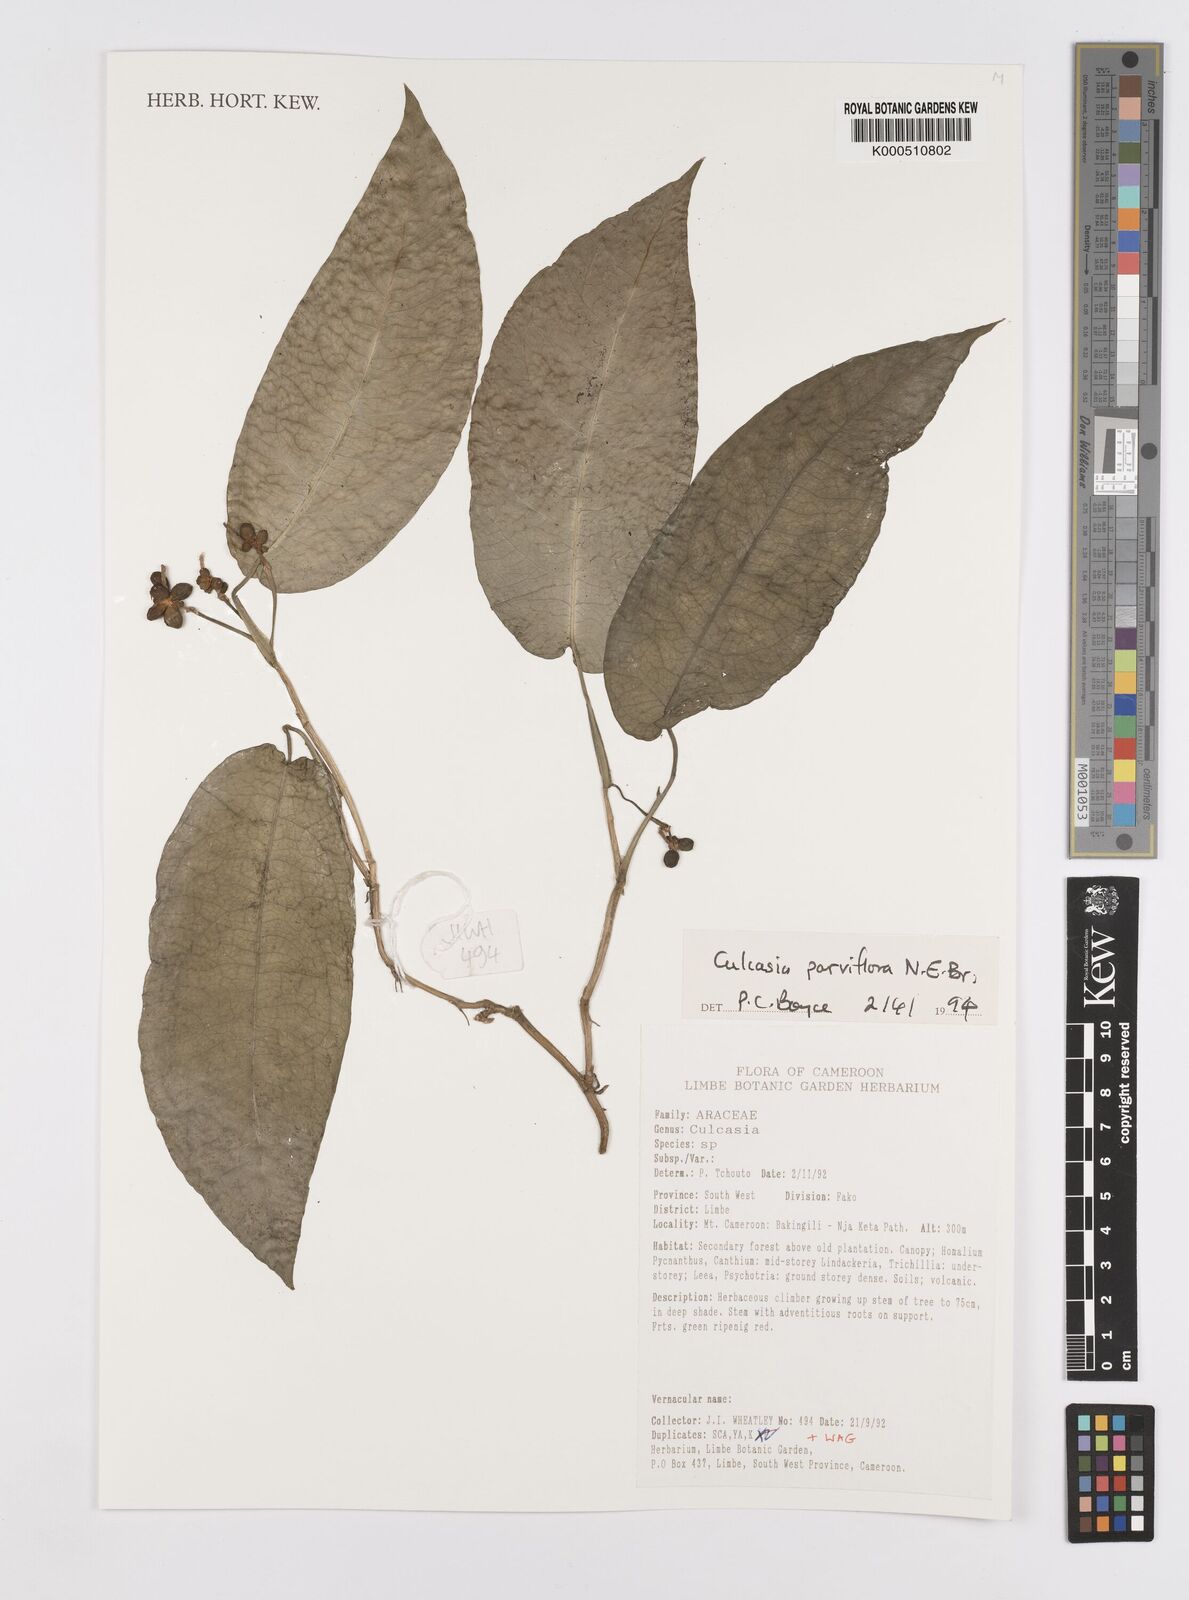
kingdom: Plantae
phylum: Tracheophyta
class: Liliopsida
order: Alismatales
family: Araceae
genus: Culcasia
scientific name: Culcasia parviflora
